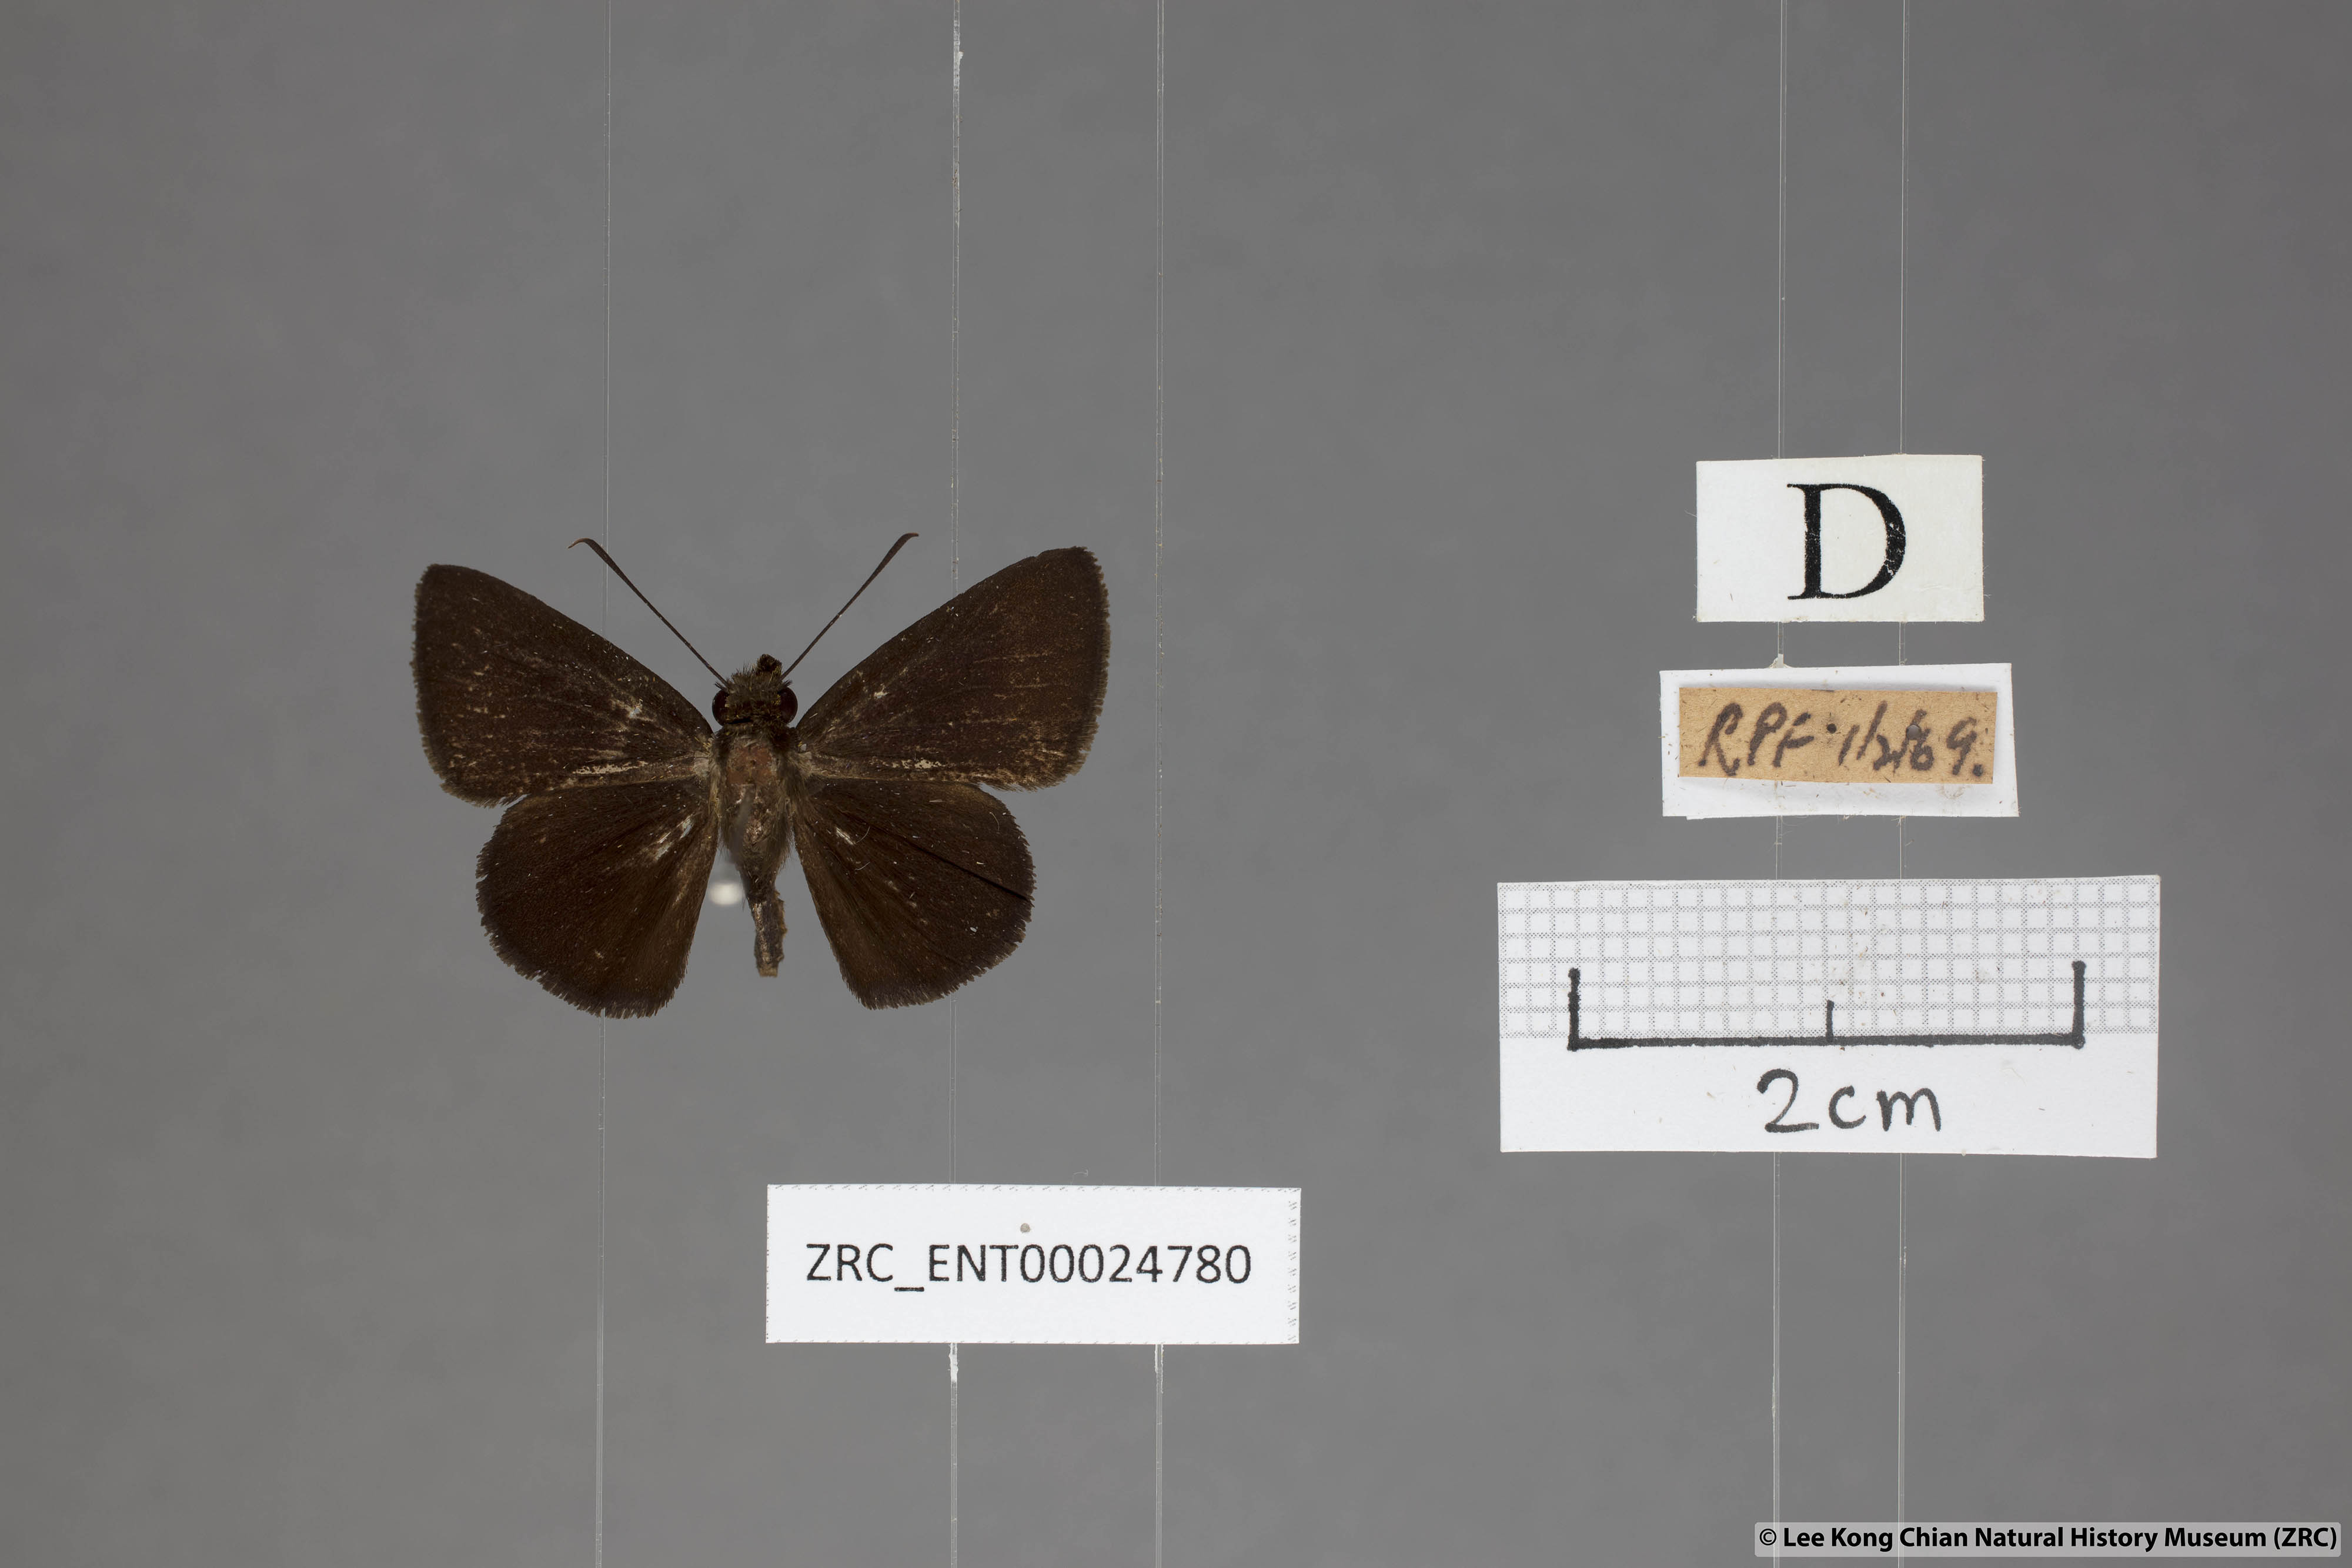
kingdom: Animalia
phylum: Arthropoda
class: Insecta
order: Lepidoptera
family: Hesperiidae
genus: Iambrix
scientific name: Iambrix
